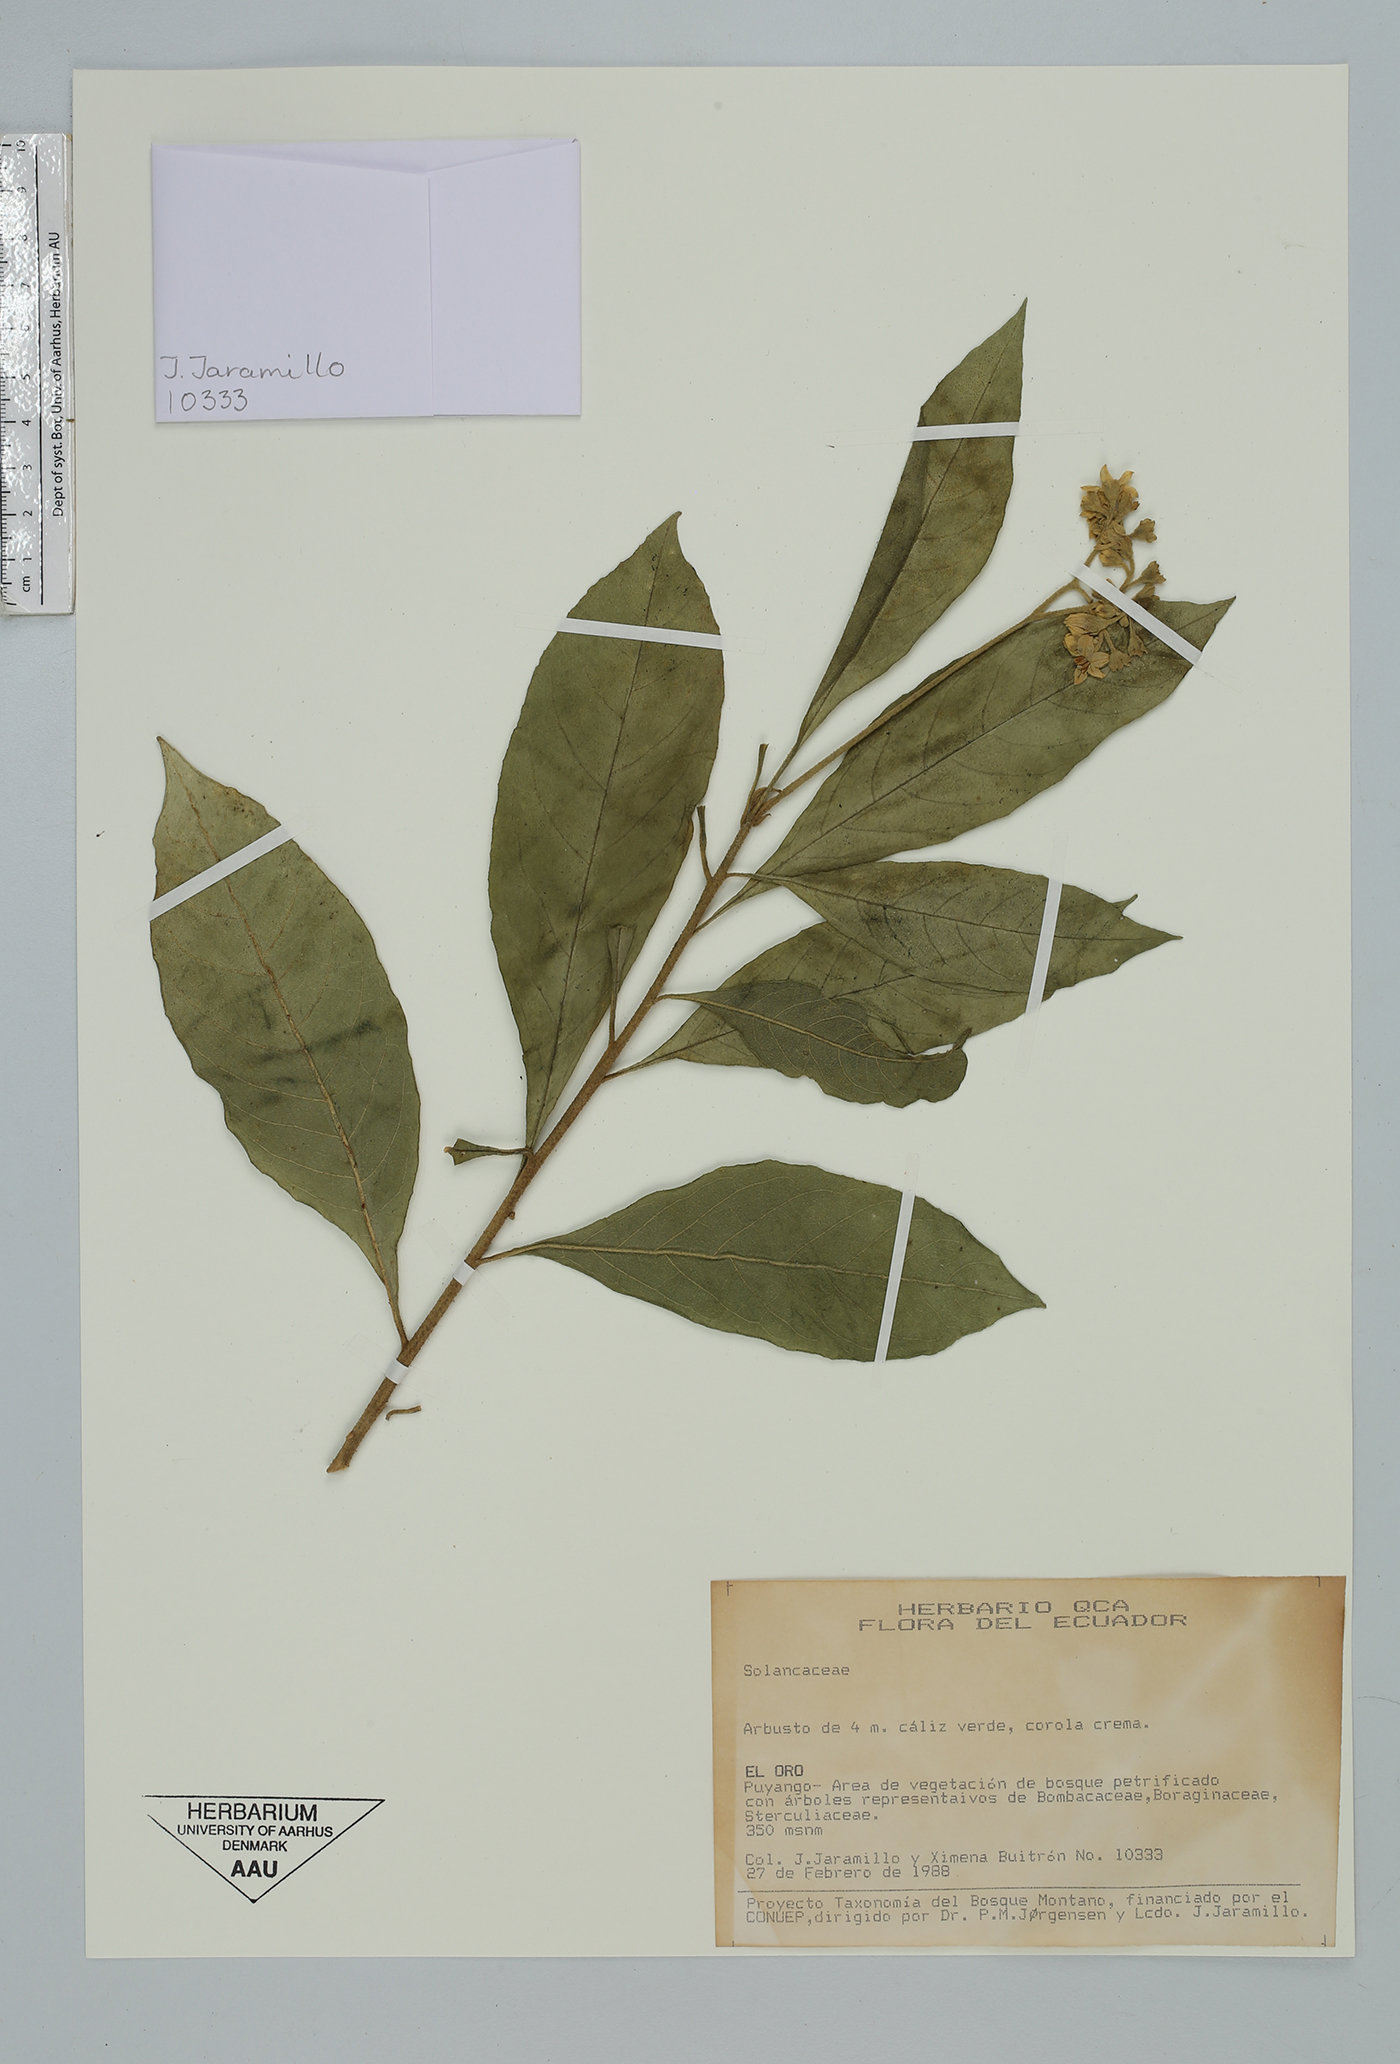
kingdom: Plantae
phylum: Tracheophyta
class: Magnoliopsida
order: Solanales
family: Solanaceae
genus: Solanum
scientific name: Solanum
